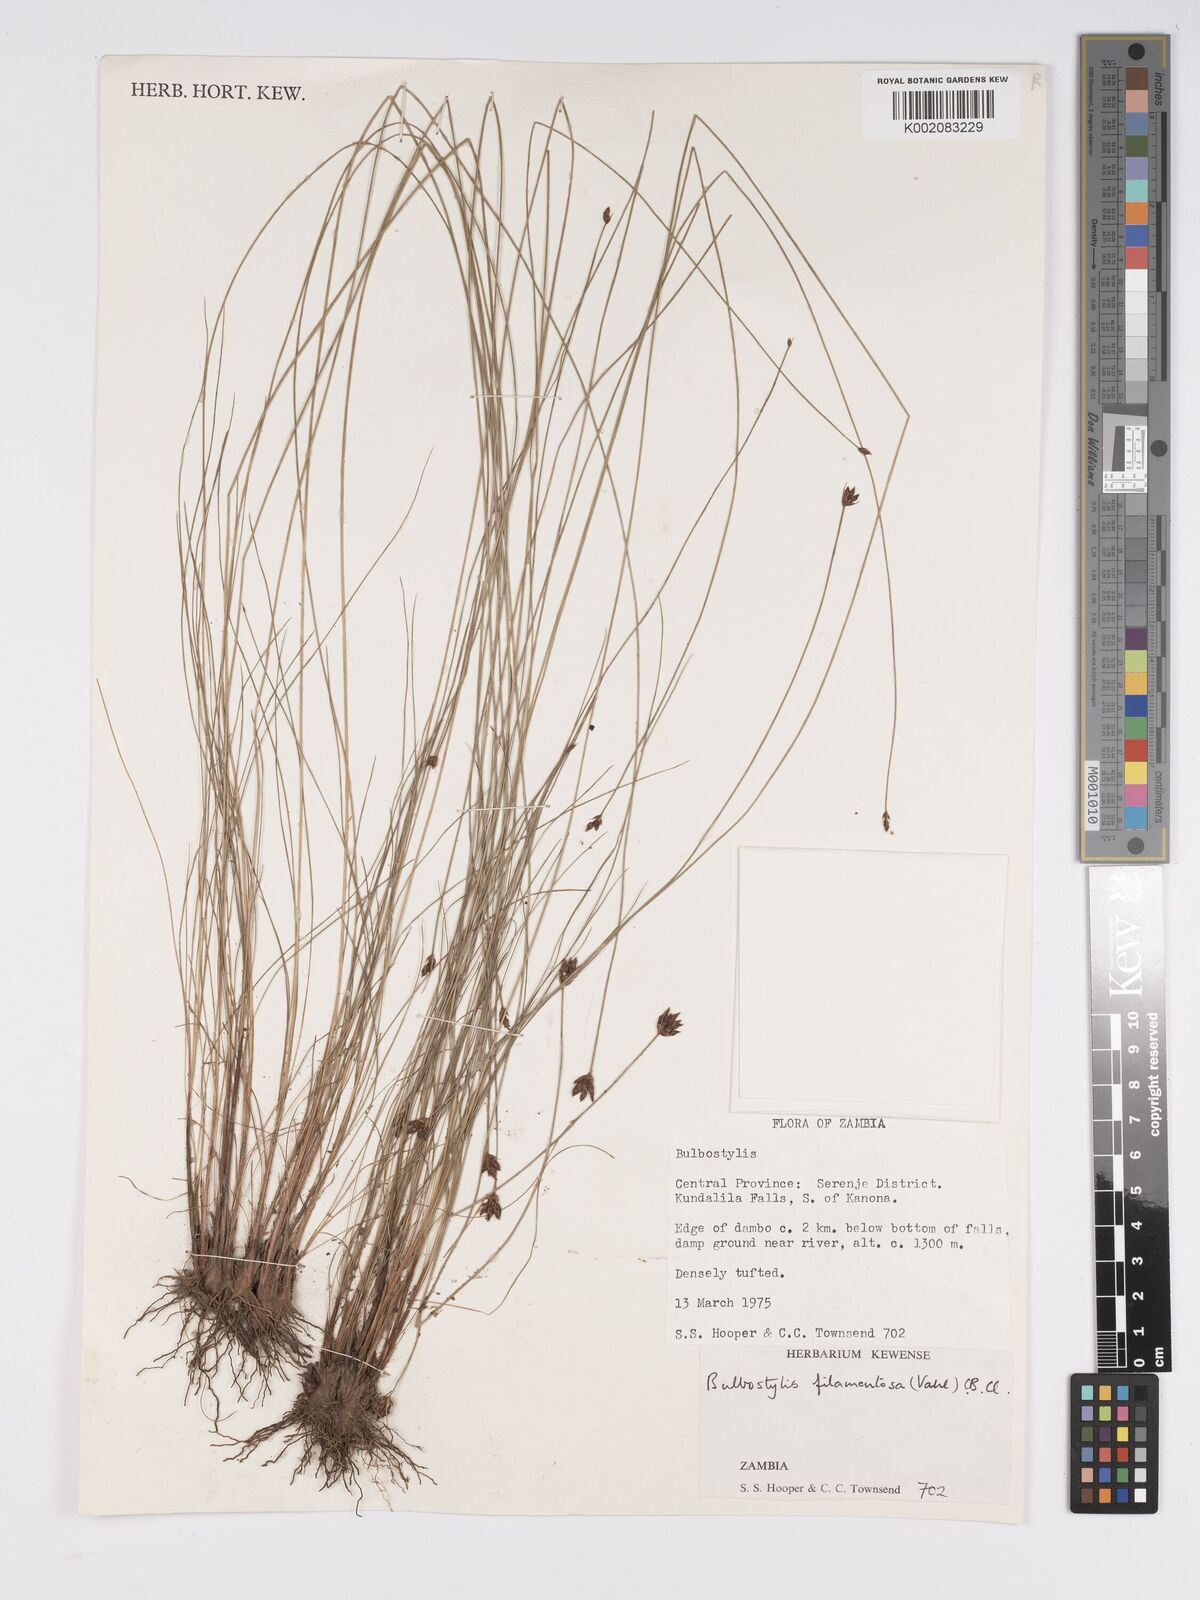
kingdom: Plantae
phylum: Tracheophyta
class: Liliopsida
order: Poales
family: Cyperaceae
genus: Bulbostylis
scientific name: Bulbostylis filamentosa
